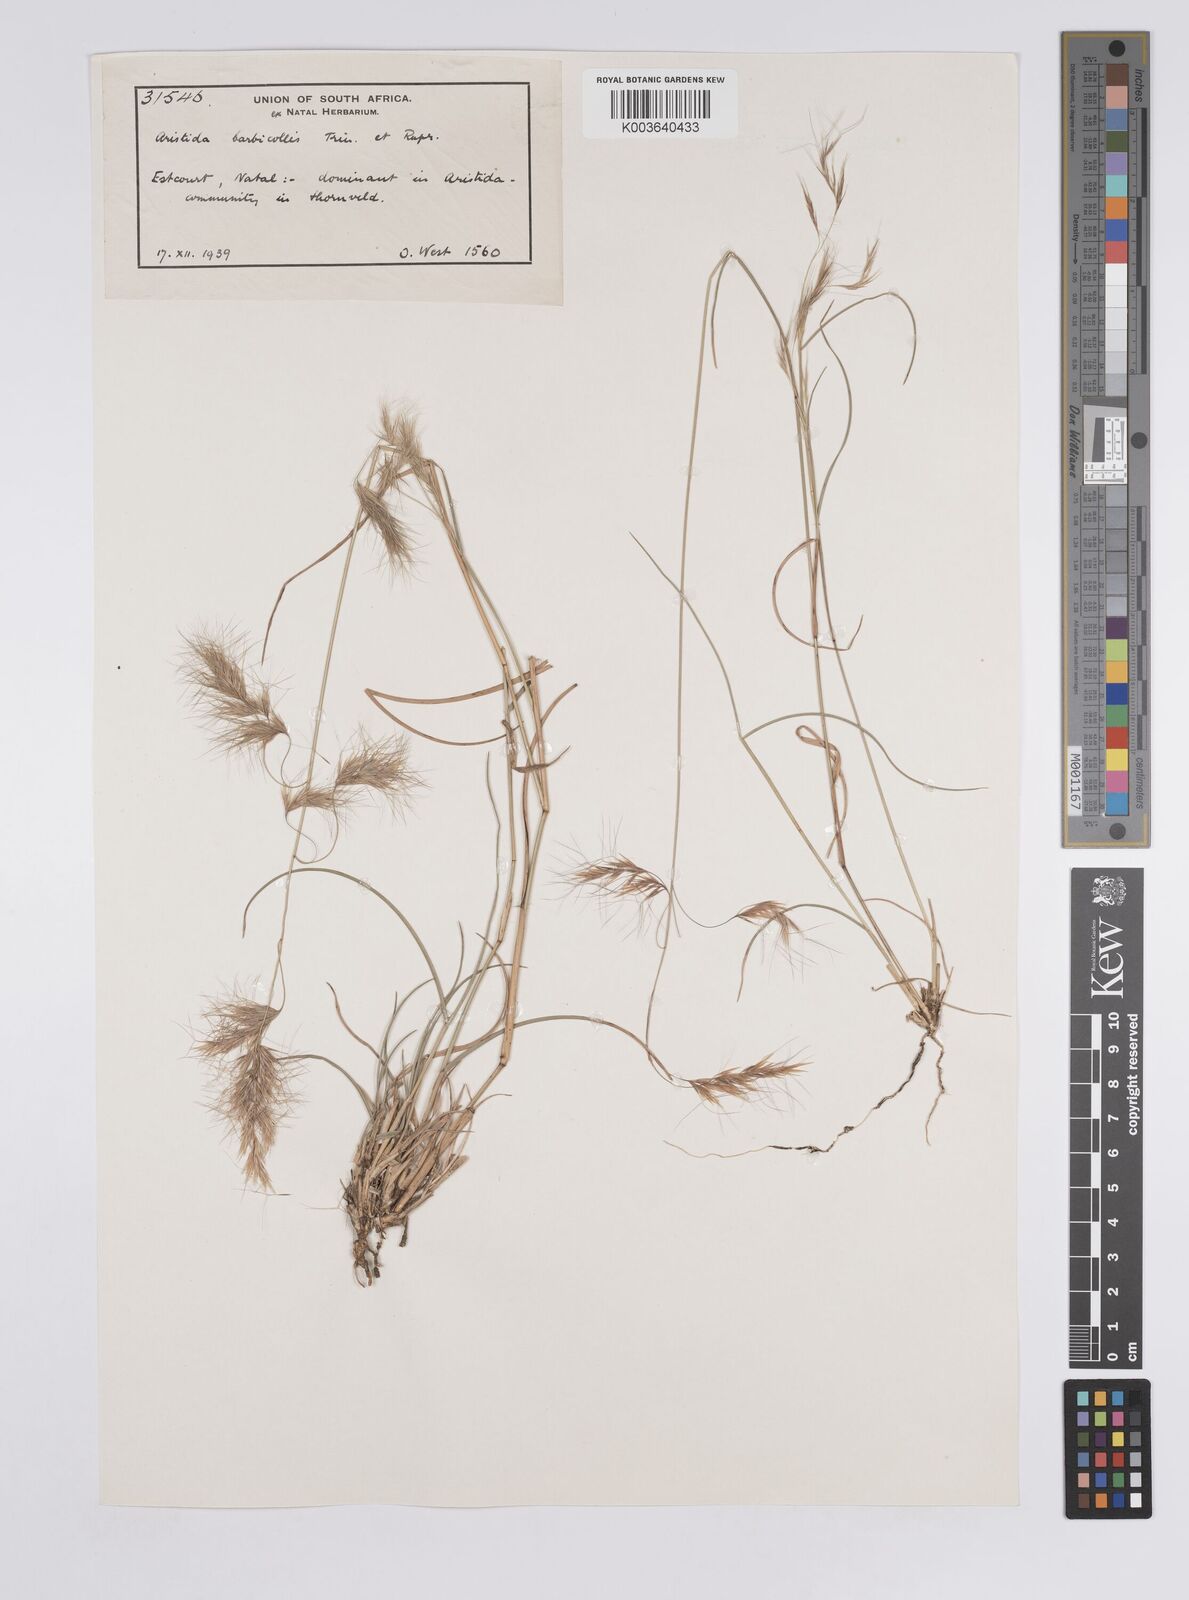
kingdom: Plantae
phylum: Tracheophyta
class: Liliopsida
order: Poales
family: Poaceae
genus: Aristida
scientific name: Aristida barbicollis
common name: Spreading prickle grass
